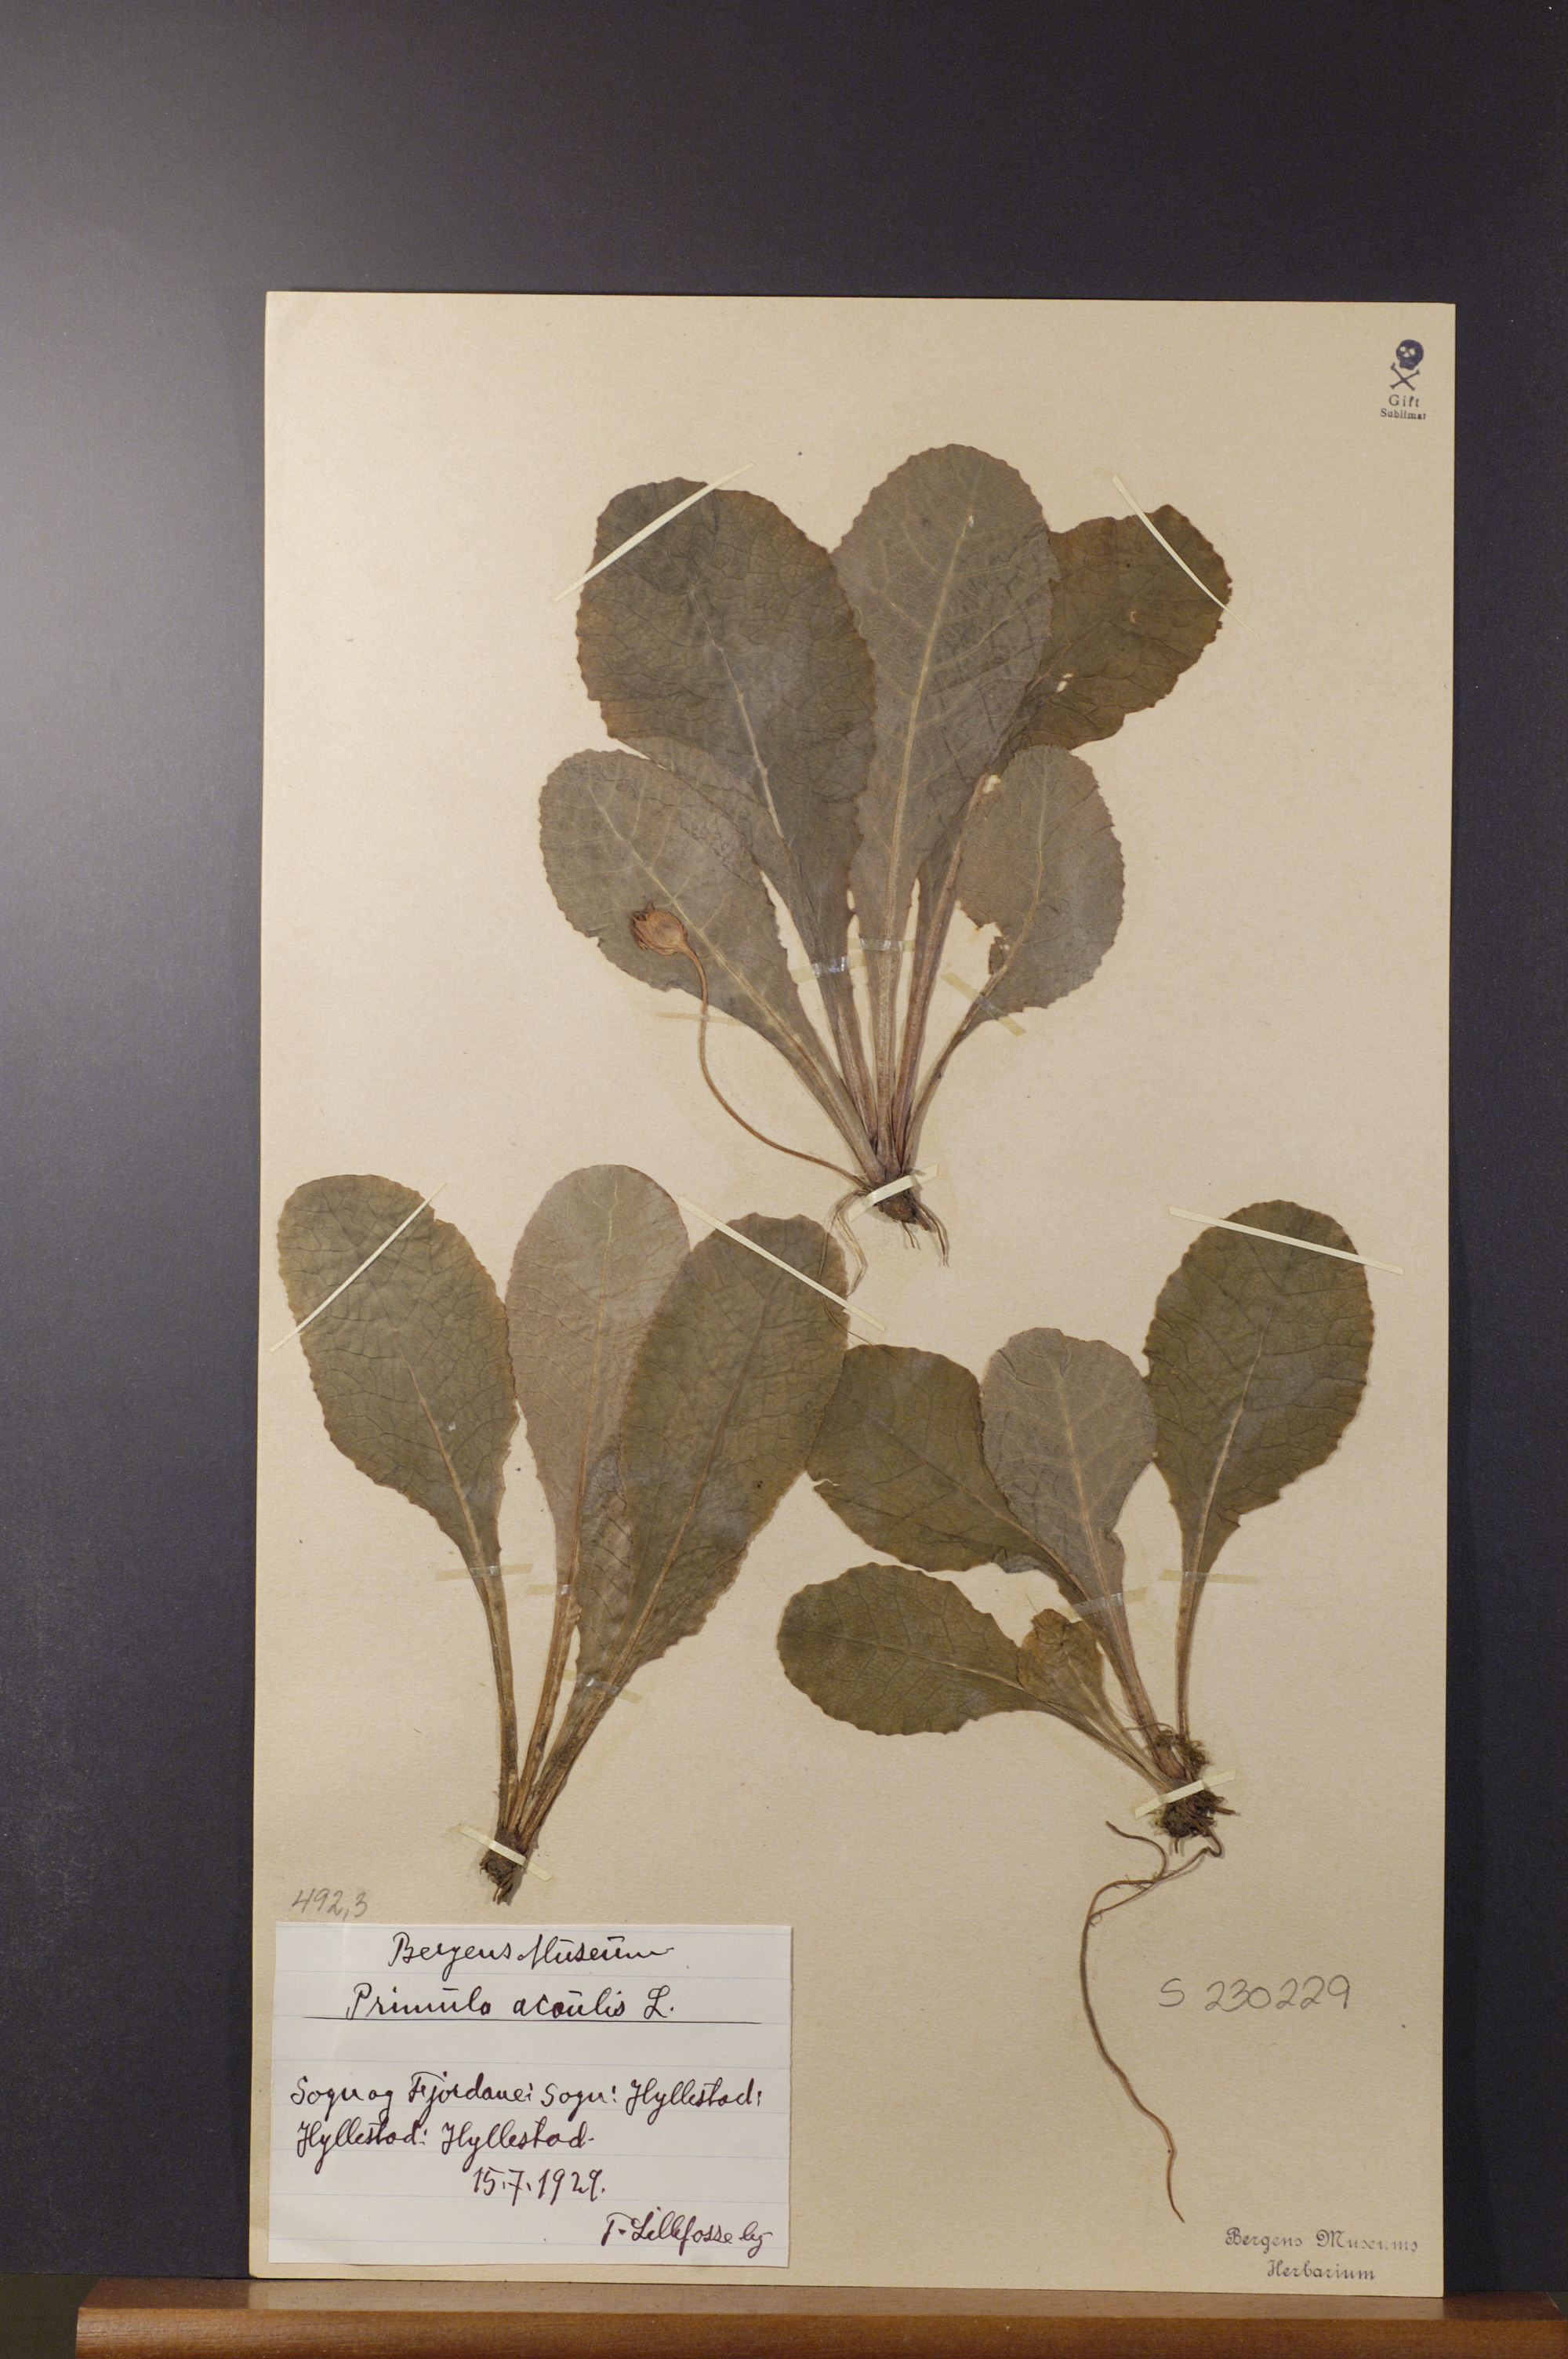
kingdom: Plantae
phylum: Tracheophyta
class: Magnoliopsida
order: Ericales
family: Primulaceae
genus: Primula
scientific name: Primula vulgaris
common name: Primrose
